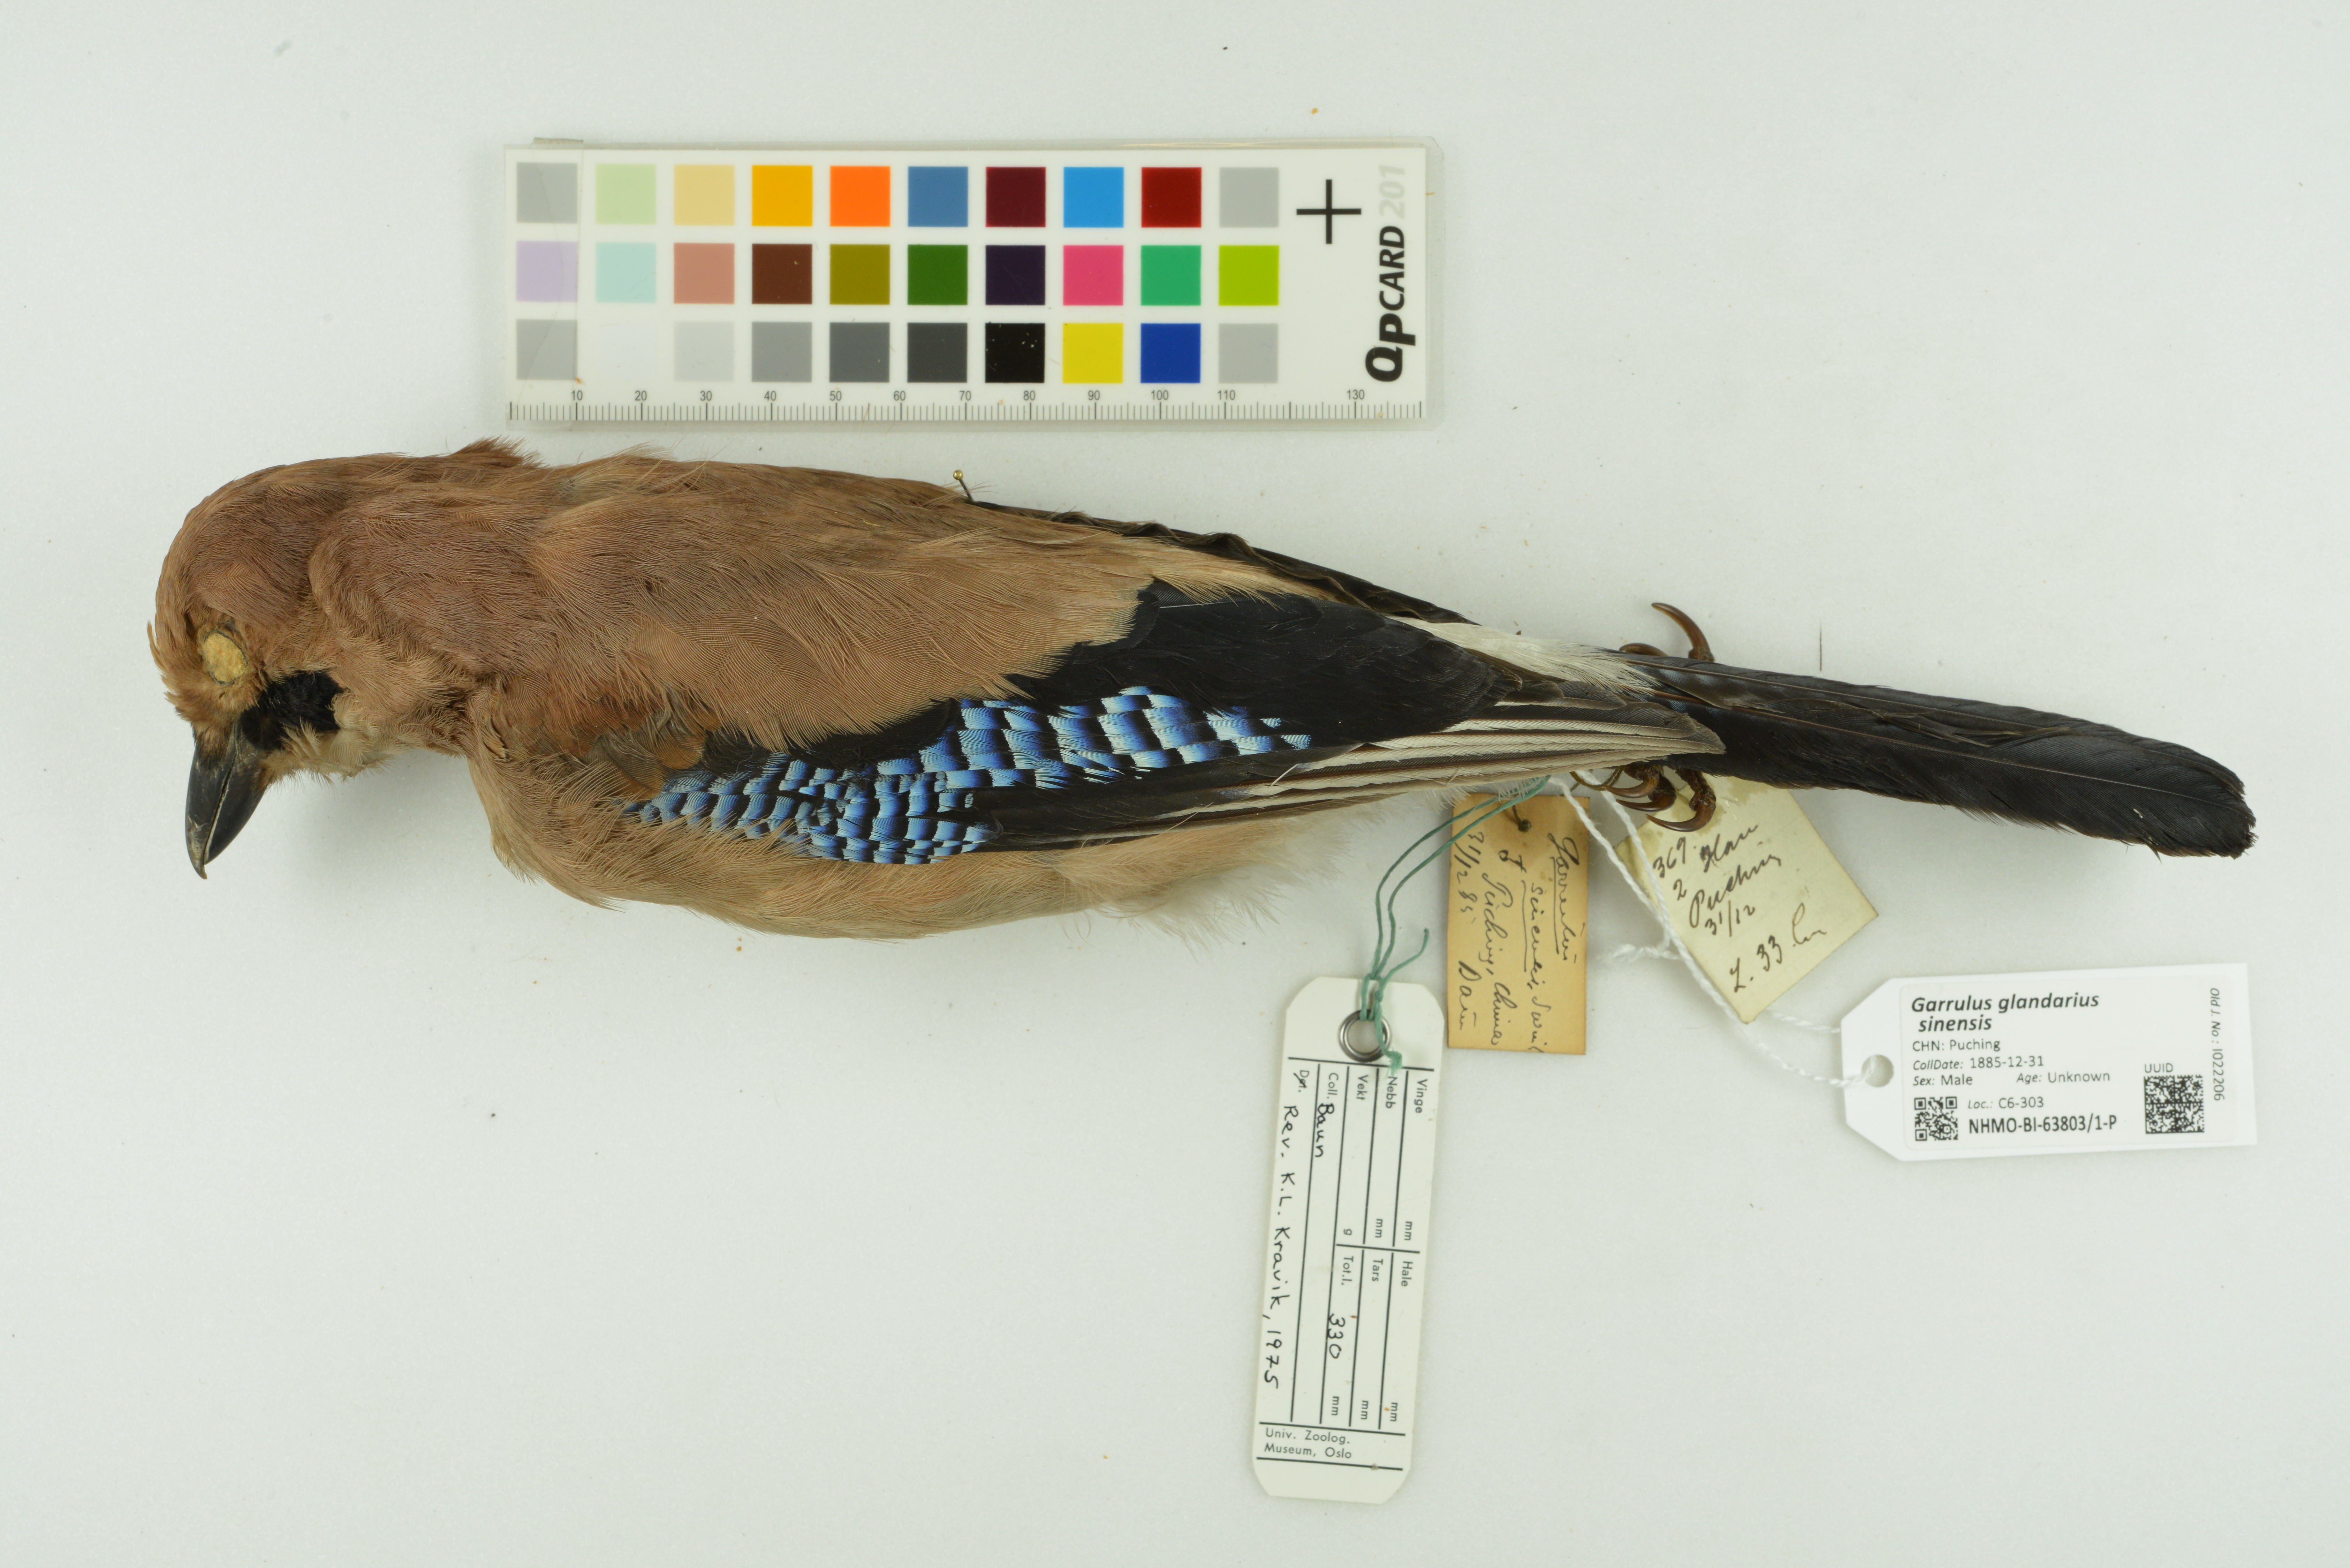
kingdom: Animalia
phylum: Chordata
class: Aves
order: Passeriformes
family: Corvidae
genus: Garrulus
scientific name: Garrulus glandarius
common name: Eurasian jay
